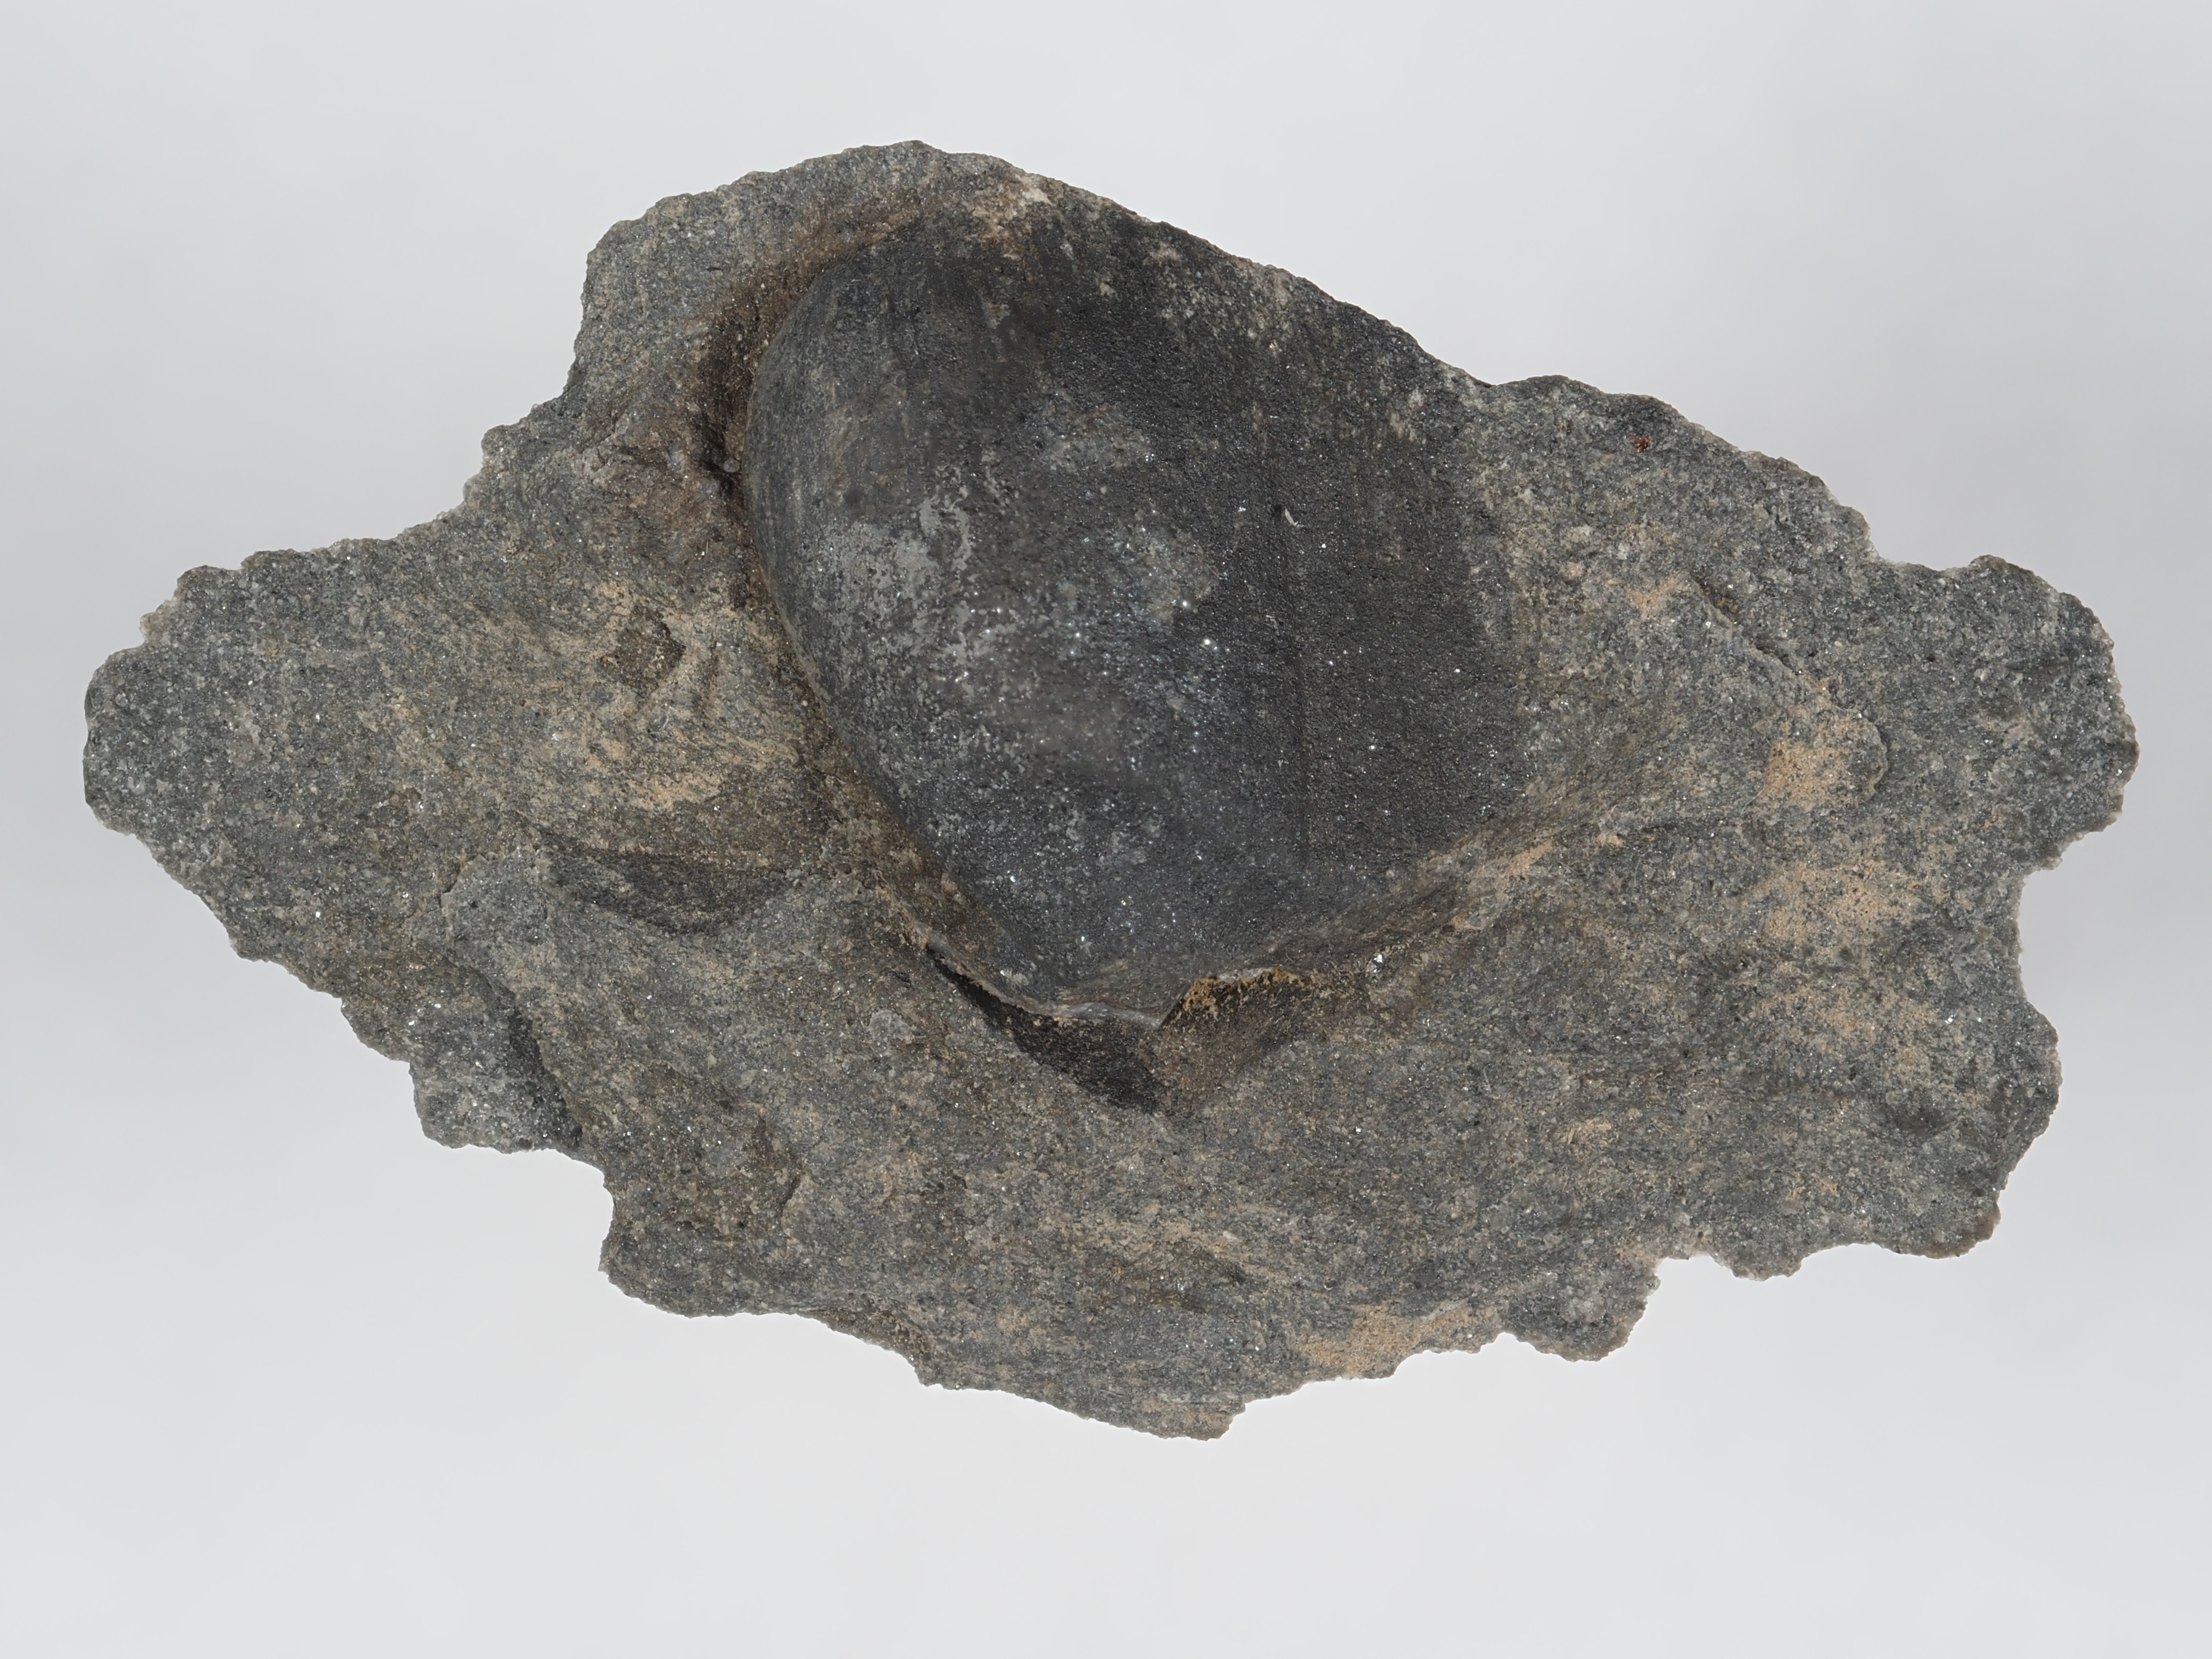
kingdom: Animalia
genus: Koenenia
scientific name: Koenenia
